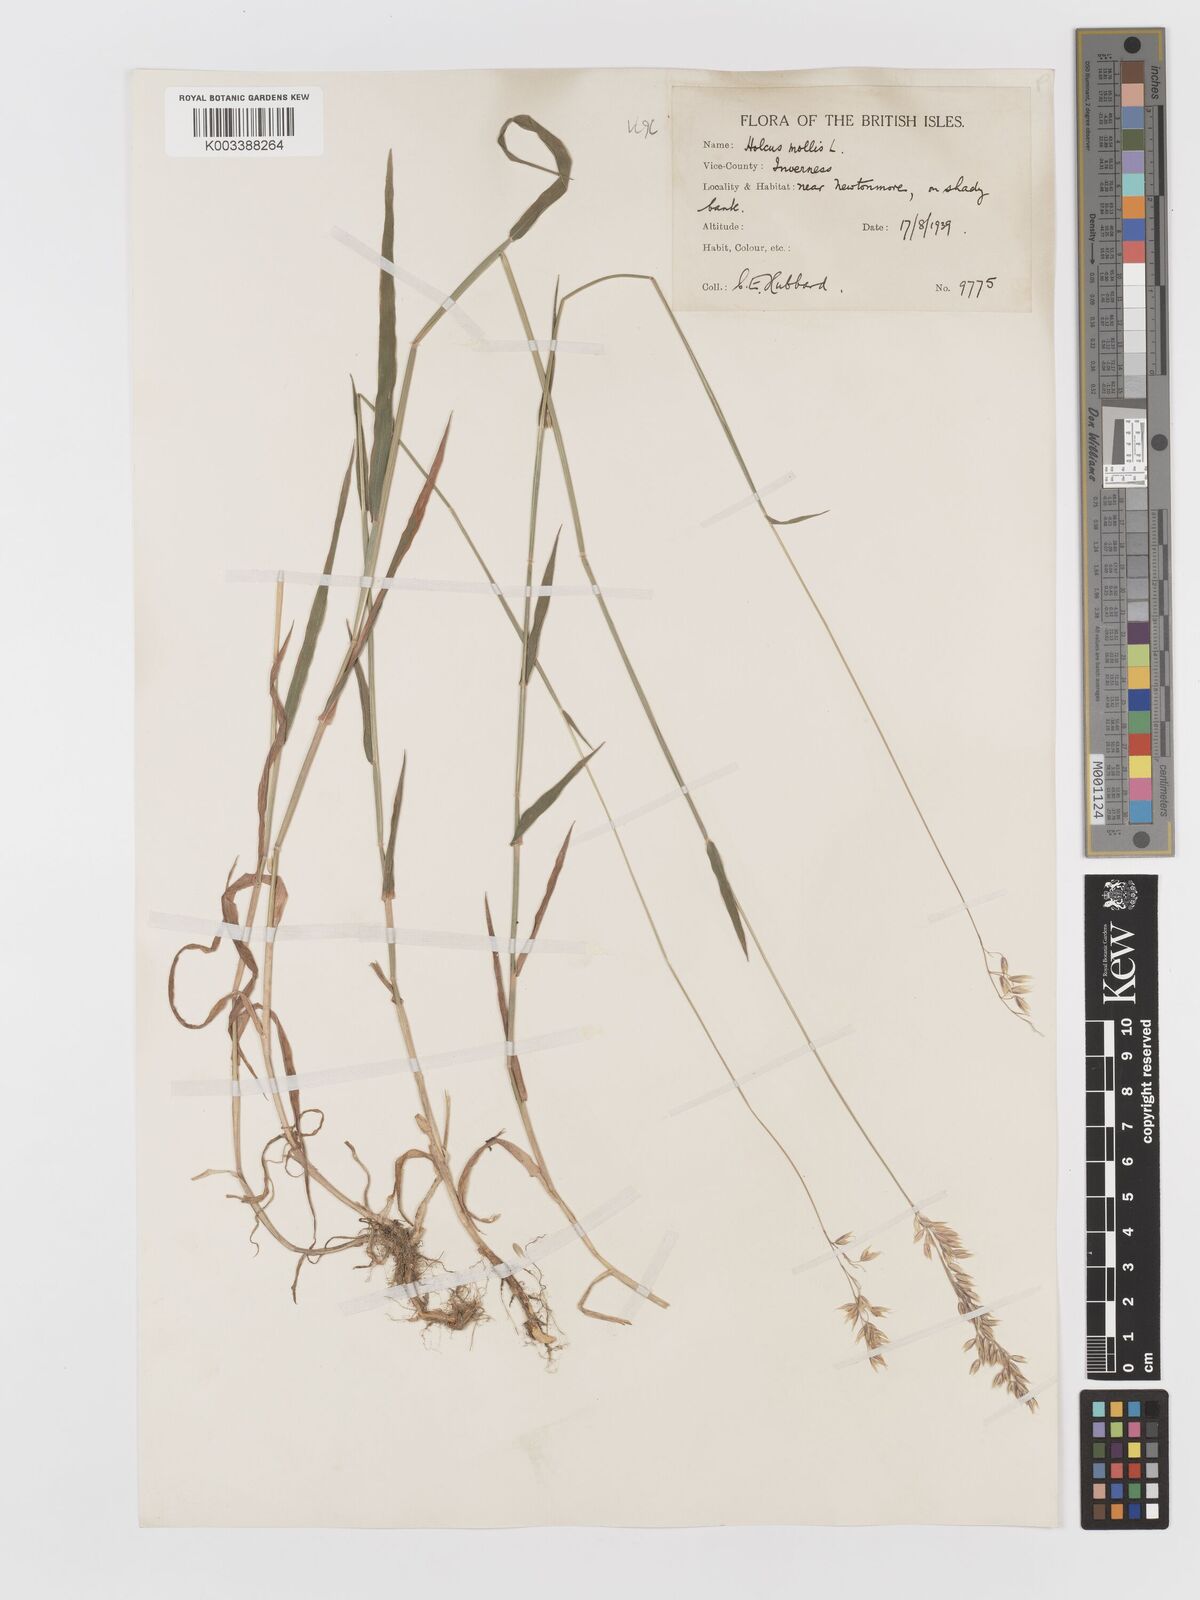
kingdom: Plantae
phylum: Tracheophyta
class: Liliopsida
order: Poales
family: Poaceae
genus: Holcus
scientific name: Holcus mollis
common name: Creeping velvetgrass
